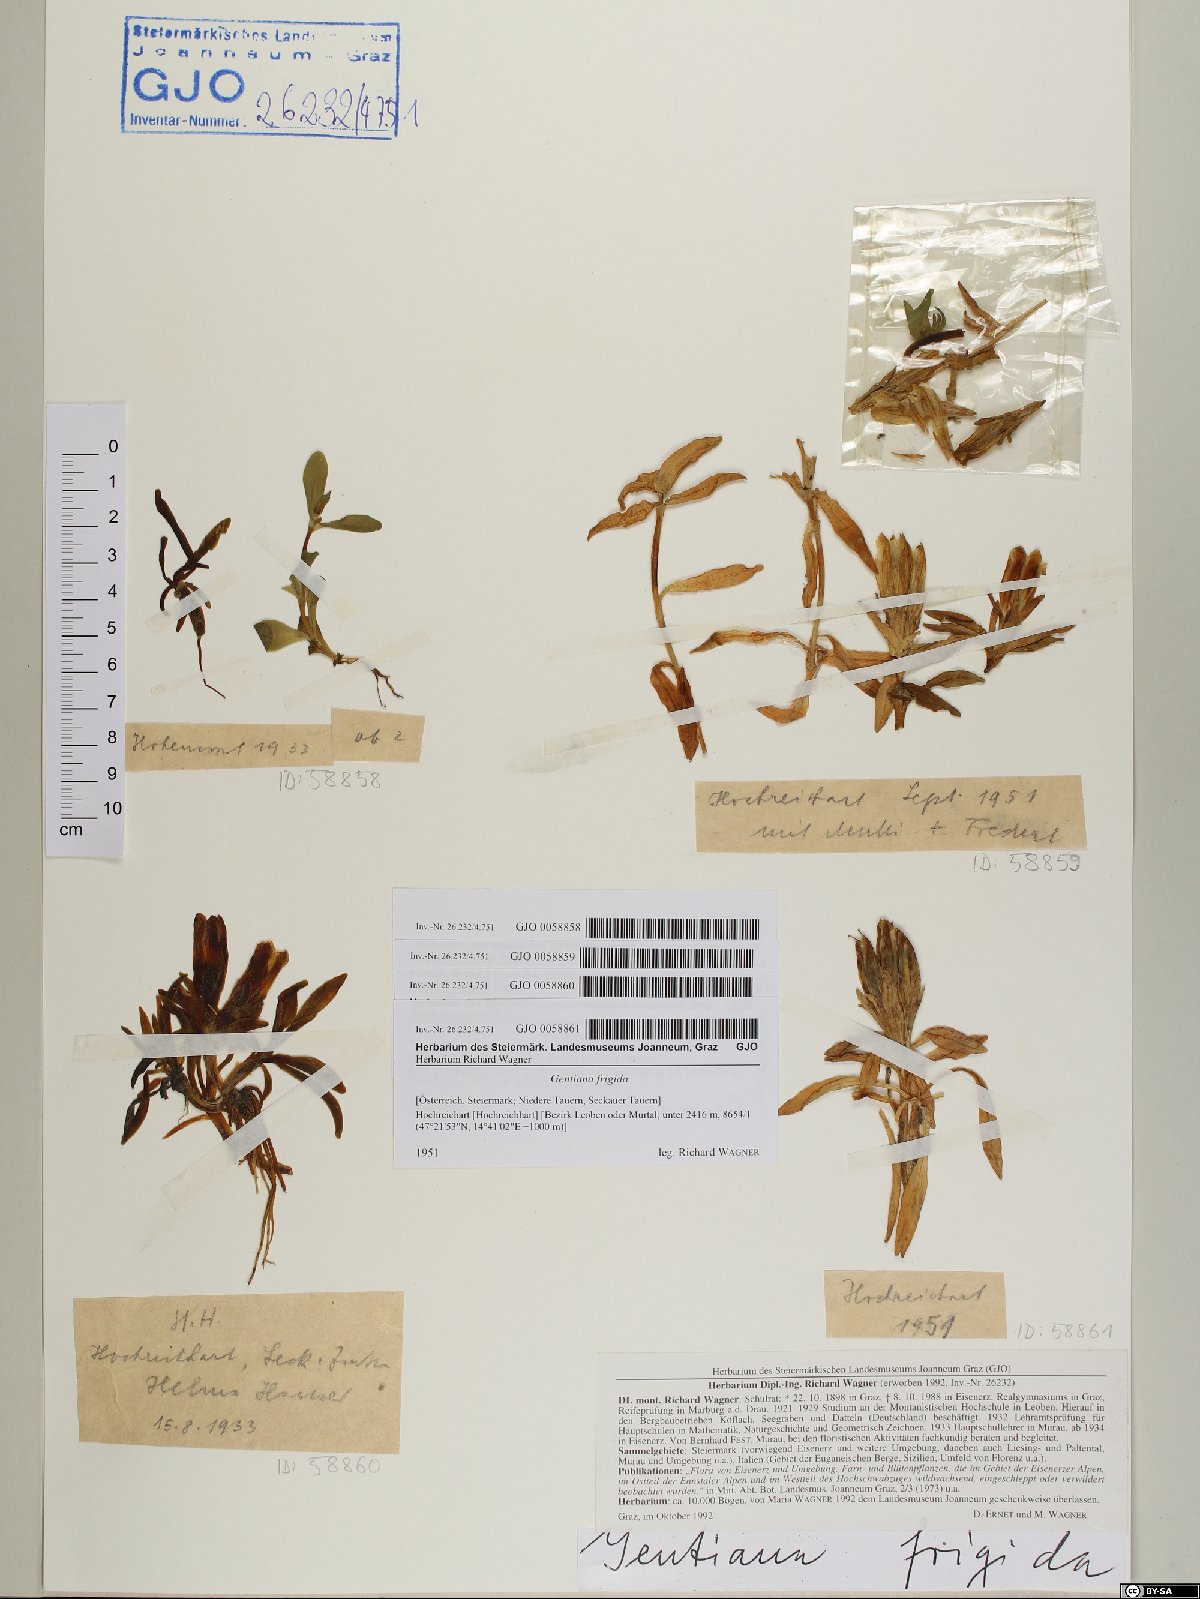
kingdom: Plantae
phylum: Tracheophyta
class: Magnoliopsida
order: Gentianales
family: Gentianaceae
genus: Gentiana
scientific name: Gentiana frigida
